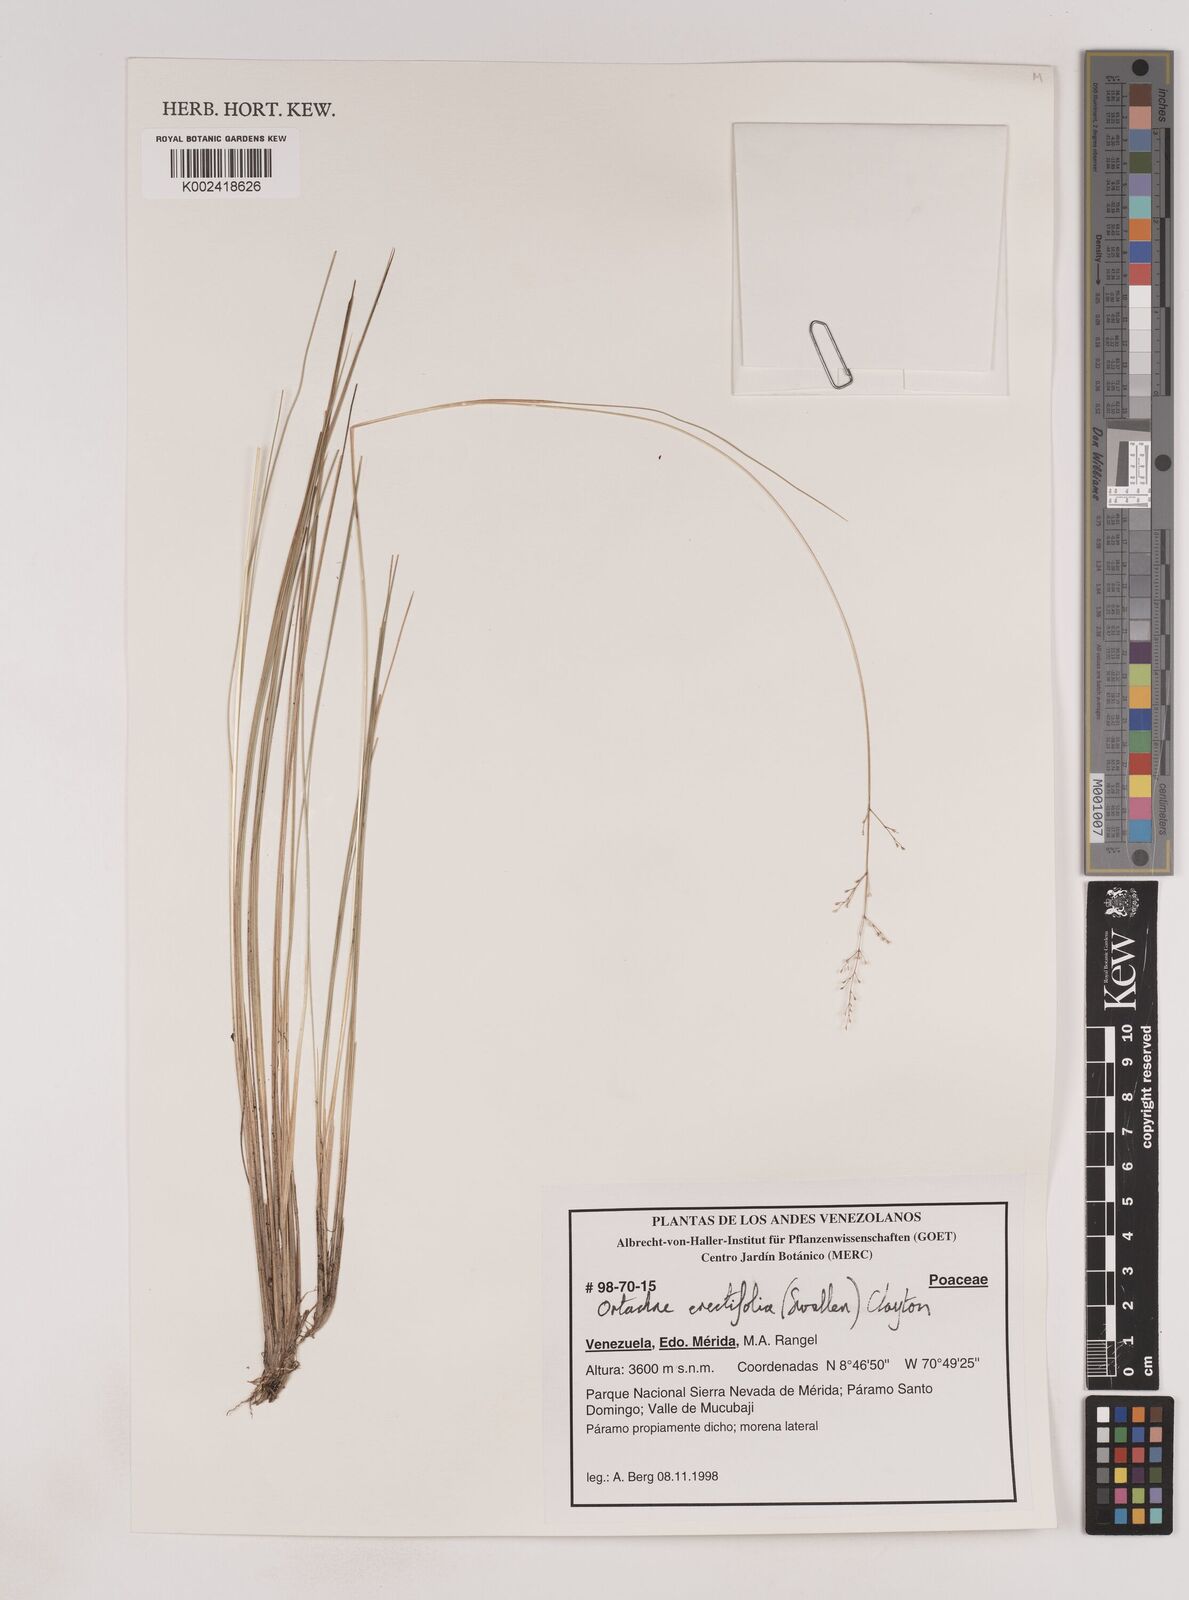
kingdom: Plantae
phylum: Tracheophyta
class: Liliopsida
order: Poales
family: Poaceae
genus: Lorenzochloa
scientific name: Lorenzochloa erectifolia
